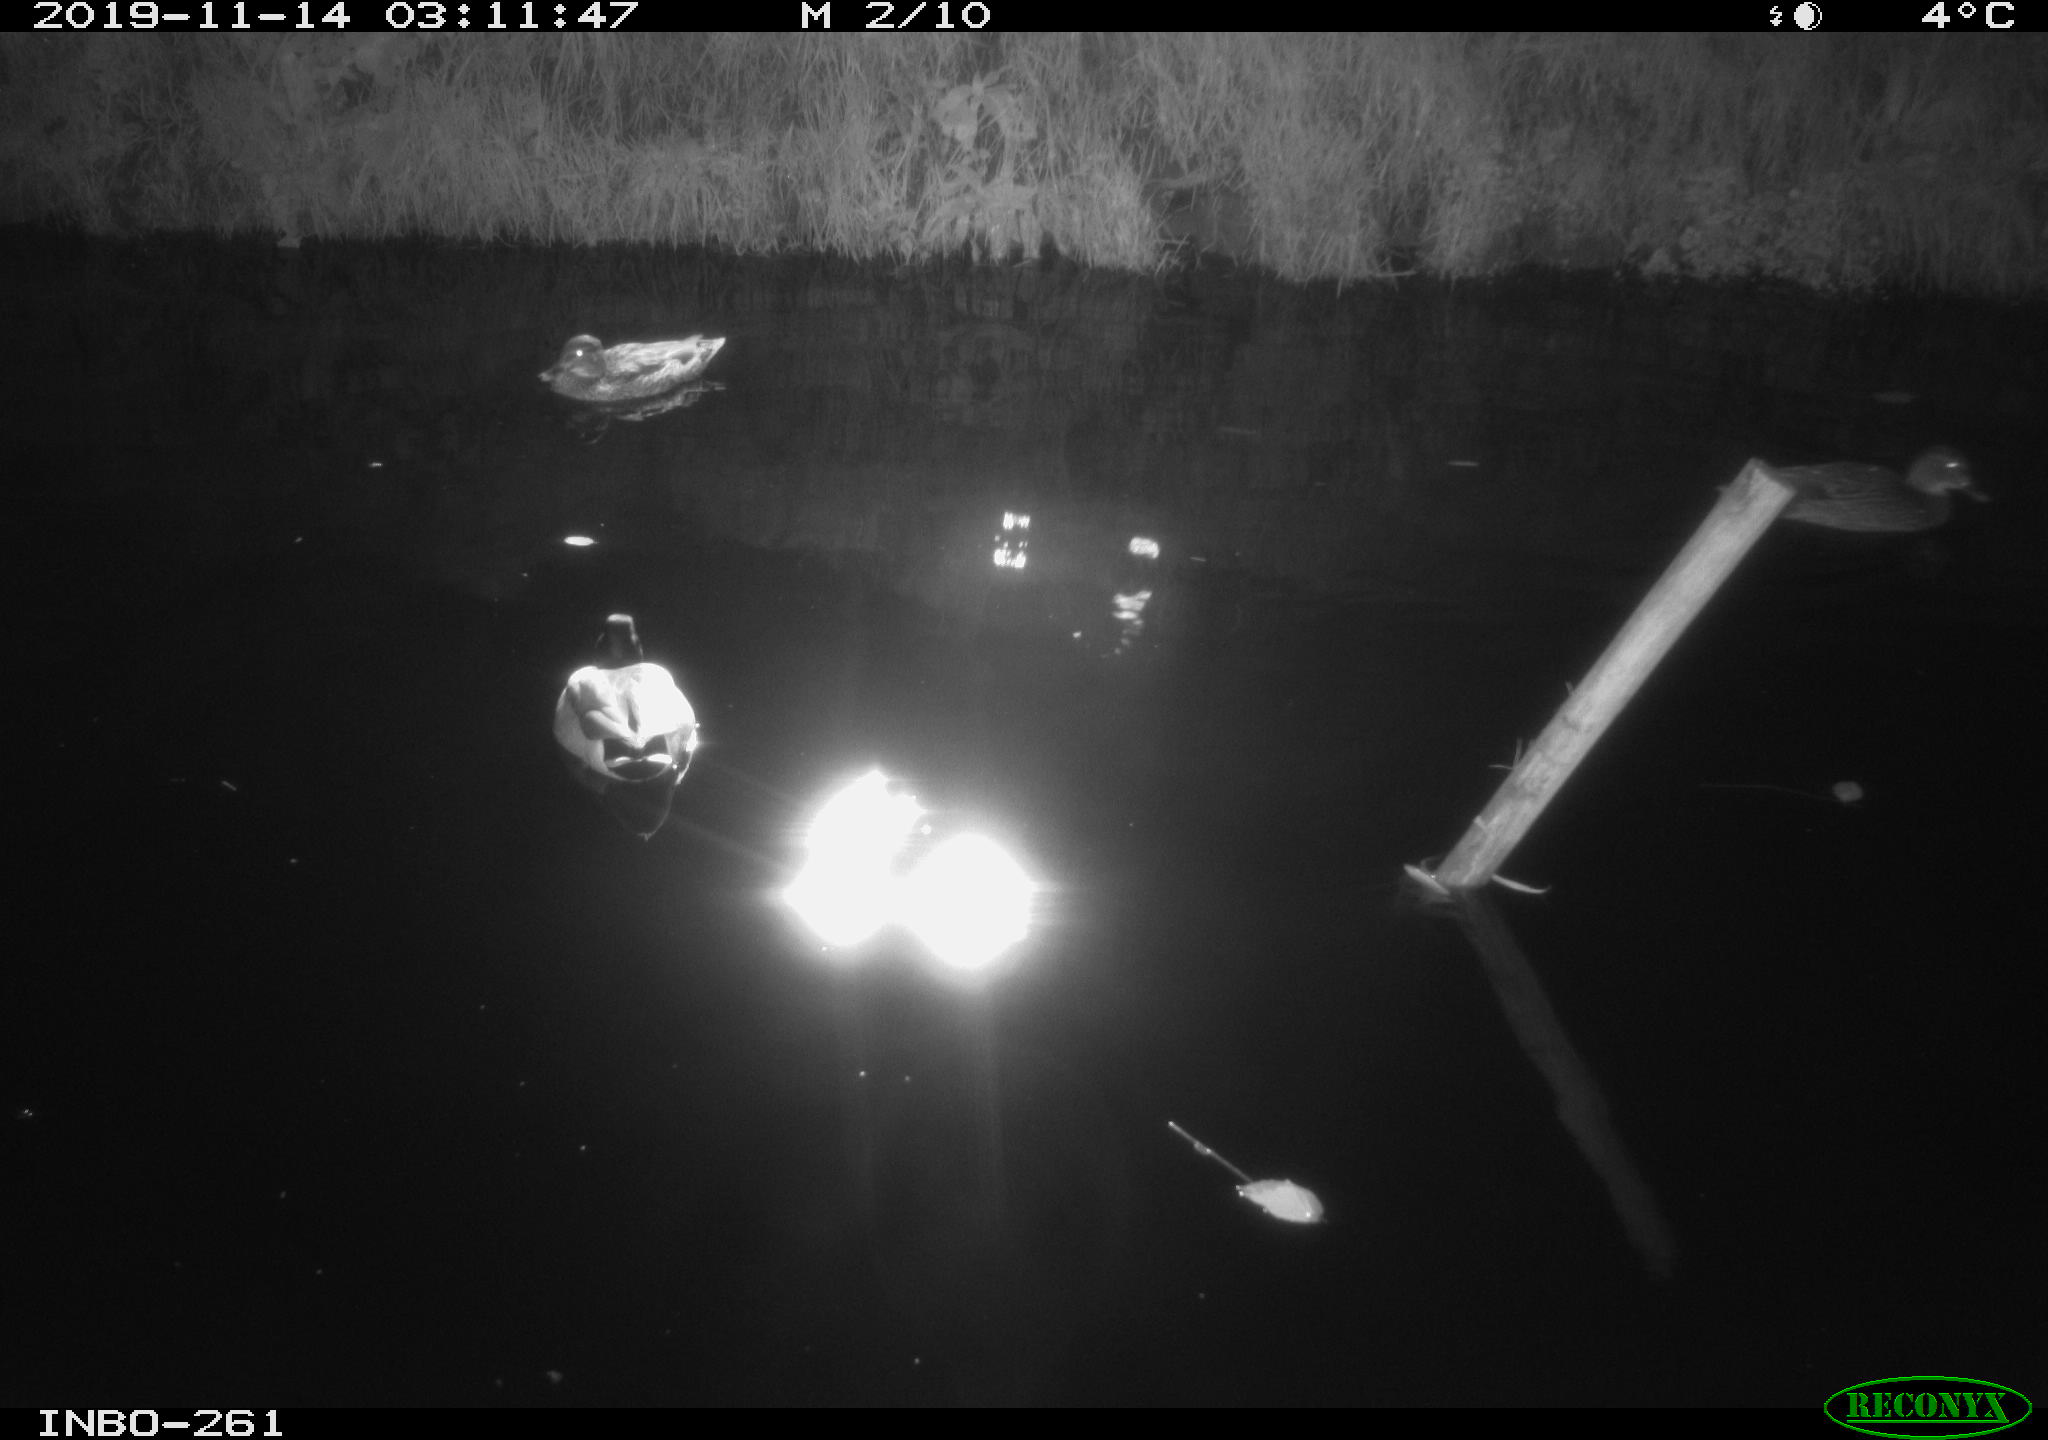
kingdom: Animalia
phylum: Chordata
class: Aves
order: Anseriformes
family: Anatidae
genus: Anas
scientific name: Anas platyrhynchos
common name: Mallard
